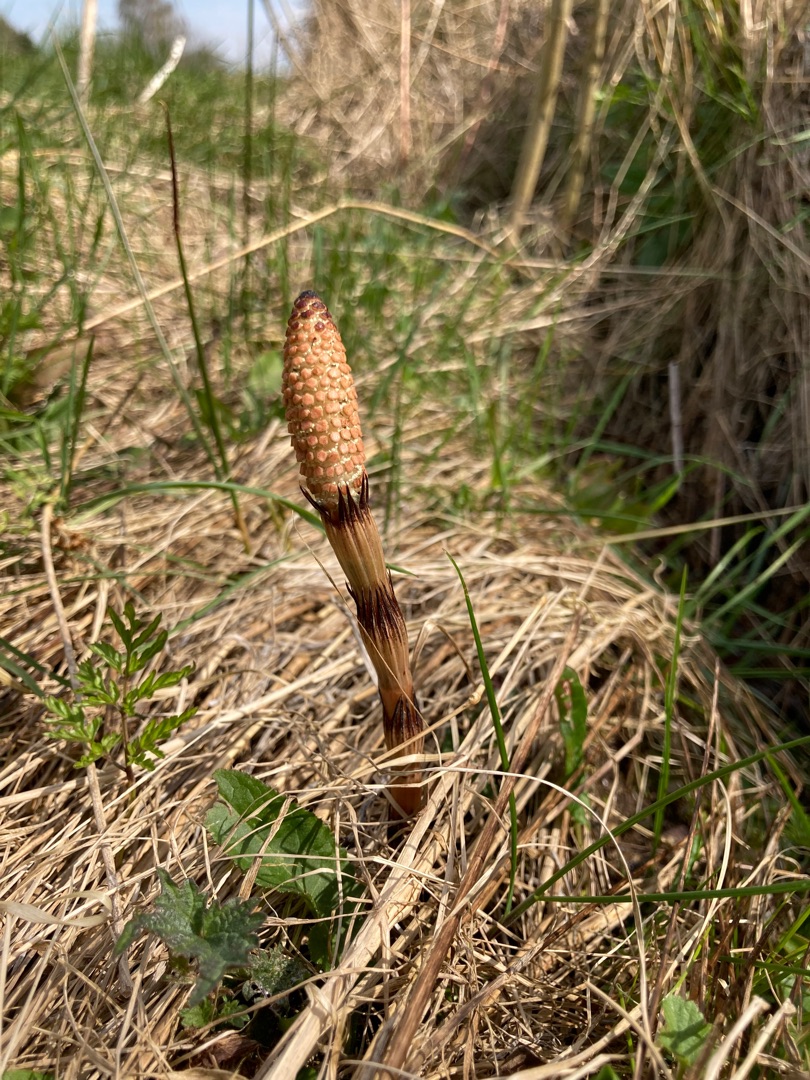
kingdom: Plantae
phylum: Tracheophyta
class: Polypodiopsida
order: Equisetales
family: Equisetaceae
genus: Equisetum
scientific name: Equisetum arvense
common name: Ager-padderok
